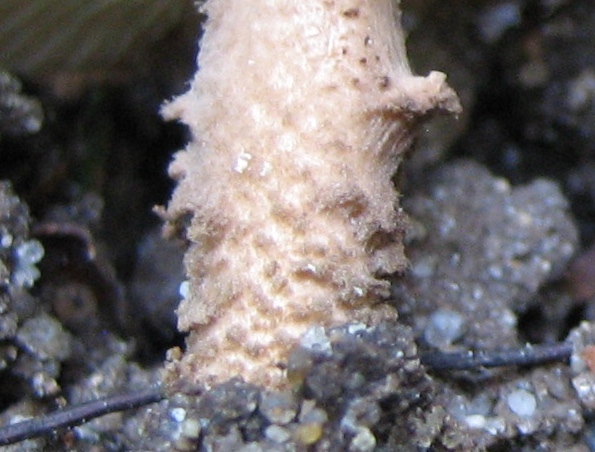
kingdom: Fungi
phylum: Basidiomycota
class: Agaricomycetes
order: Agaricales
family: Agaricaceae
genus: Echinoderma
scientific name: Echinoderma jacobi
